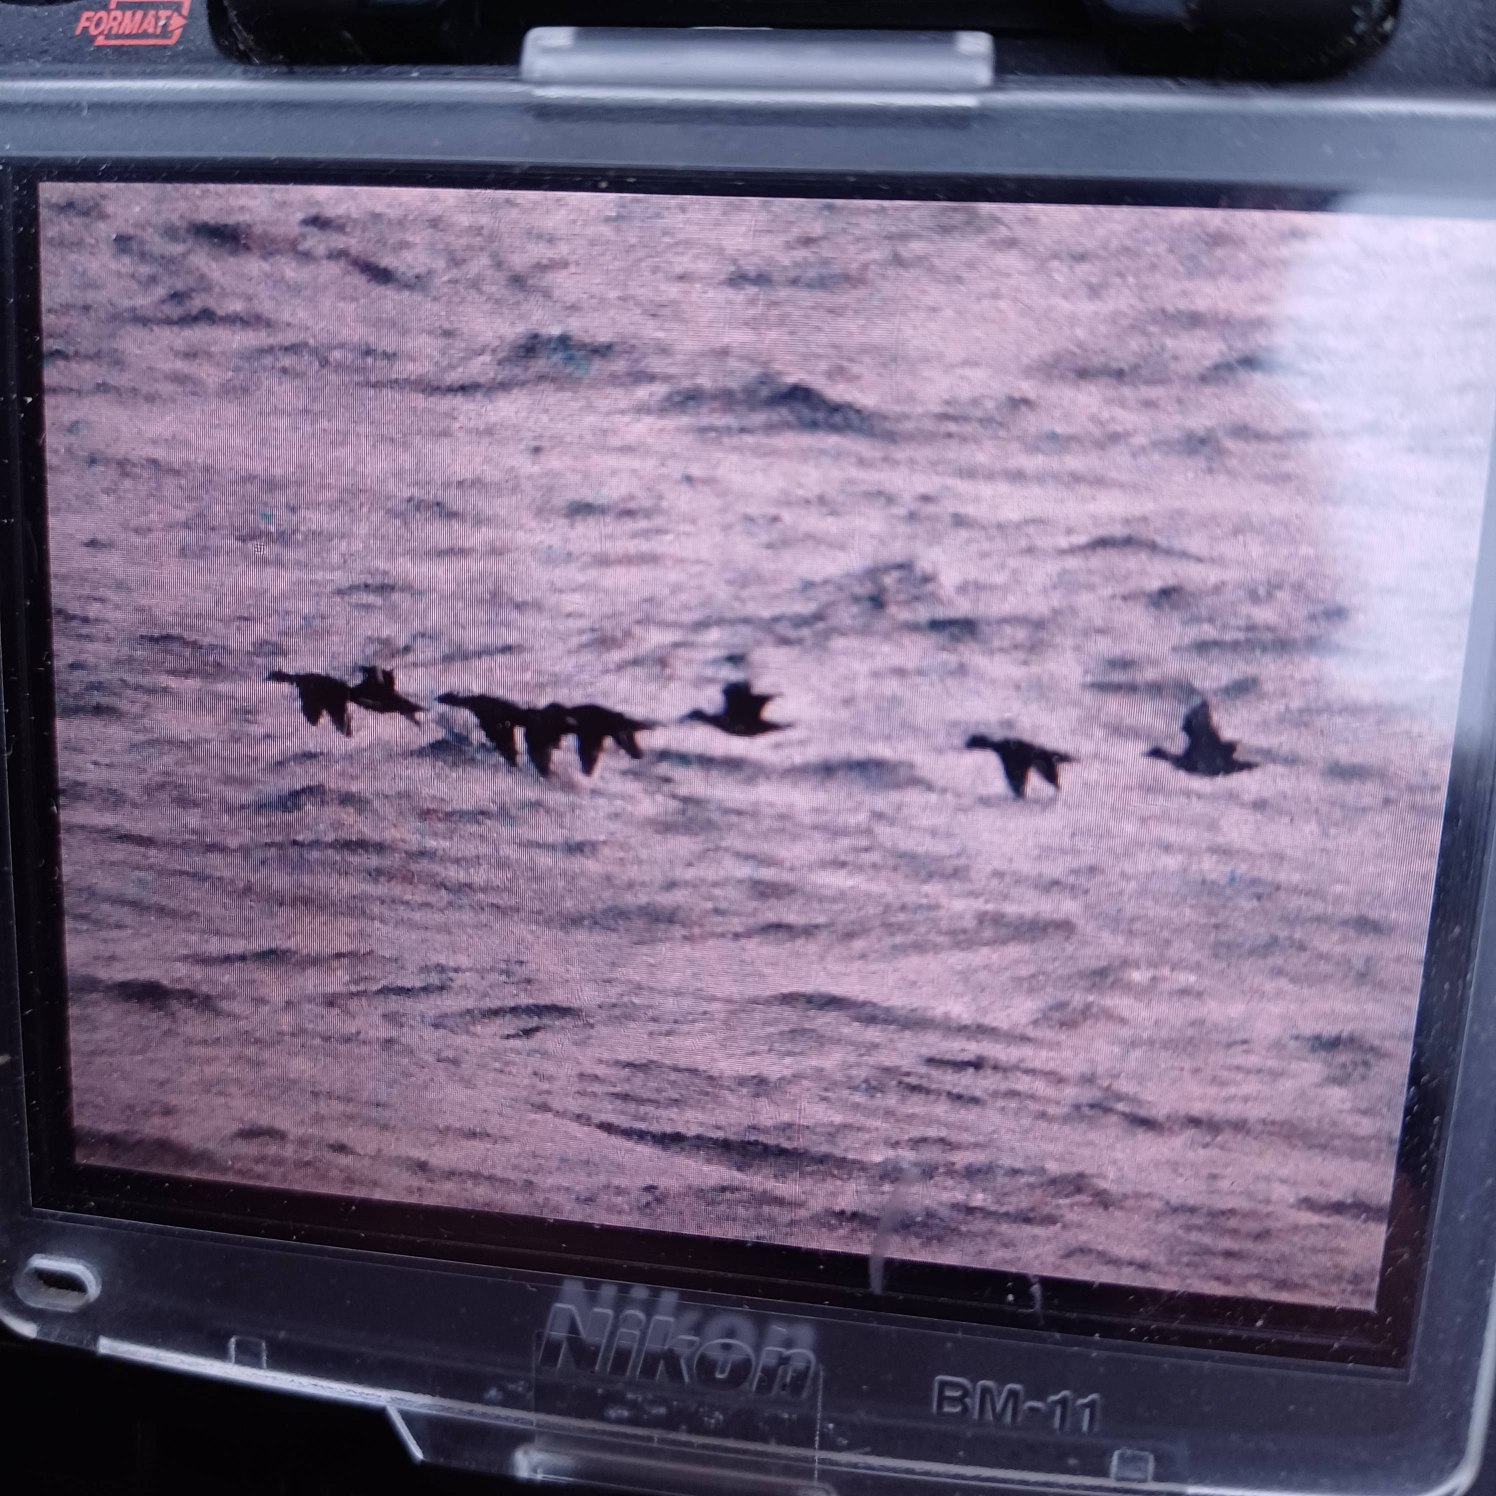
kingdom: Animalia
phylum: Chordata
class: Aves
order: Anseriformes
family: Anatidae
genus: Melanitta
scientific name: Melanitta nigra
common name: Sortand
